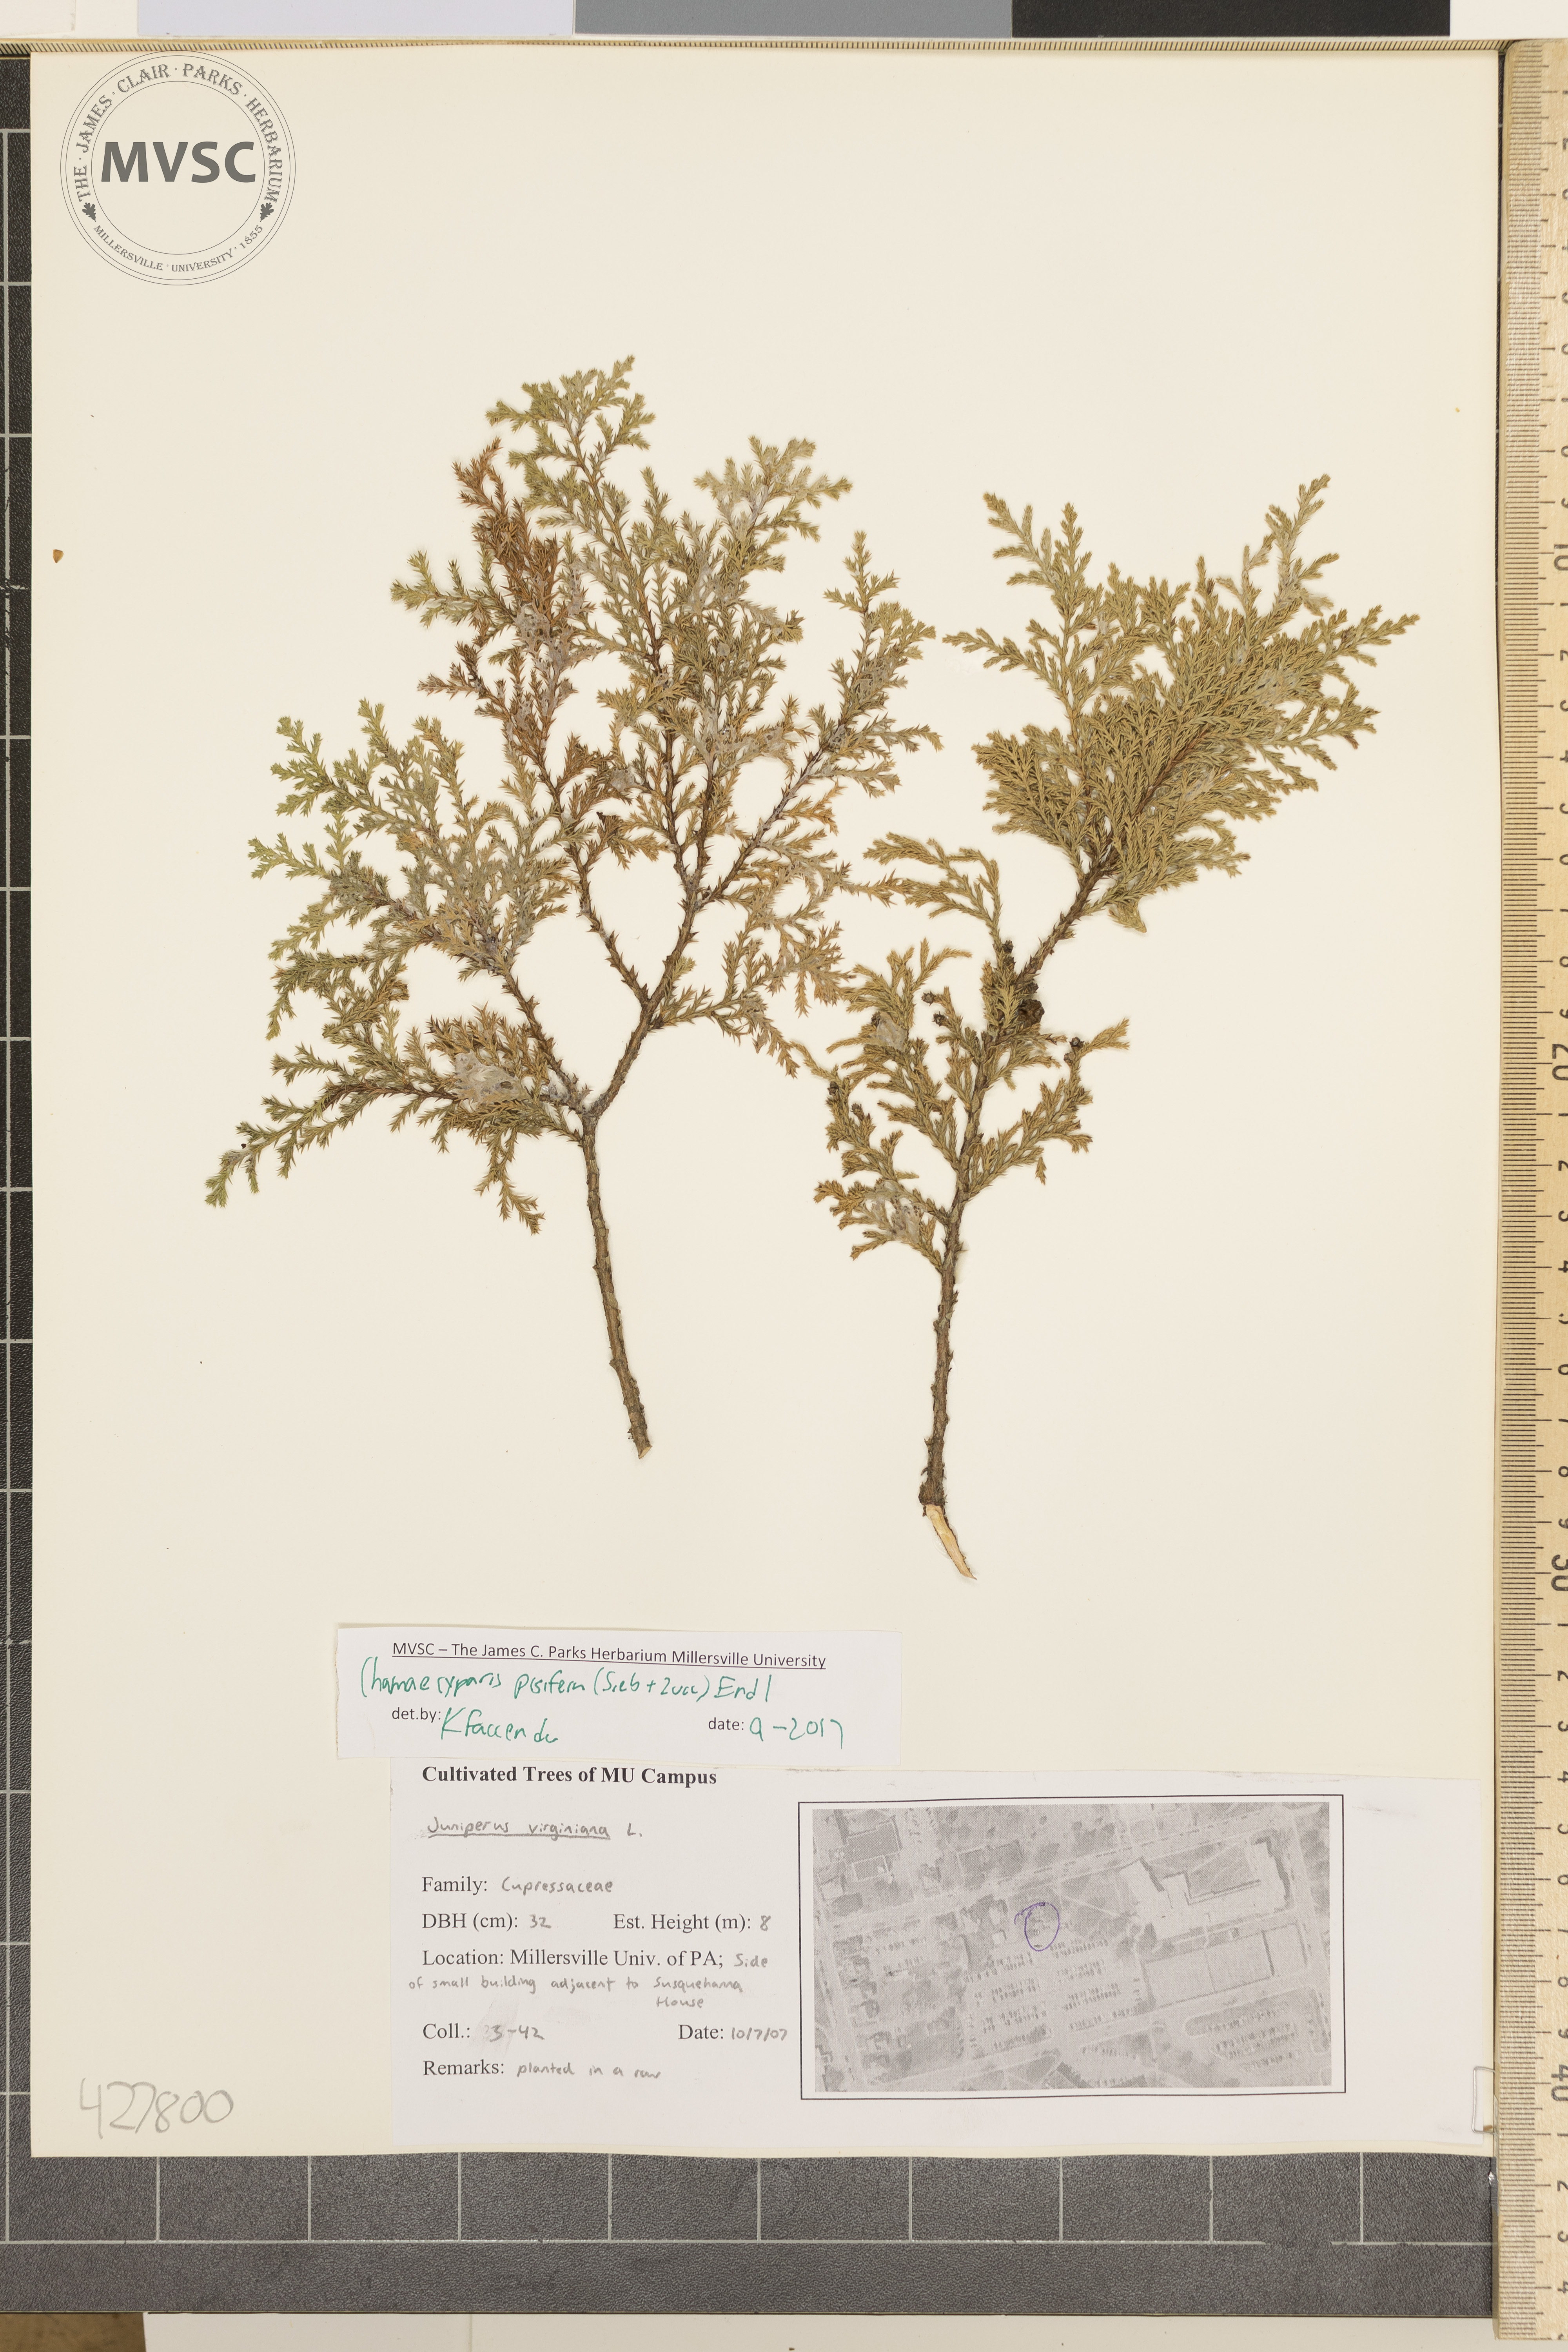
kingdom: Plantae
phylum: Tracheophyta
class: Pinopsida
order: Pinales
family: Cupressaceae
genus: Chamaecyparis
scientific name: Chamaecyparis pisifera
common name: Sawara cypress
